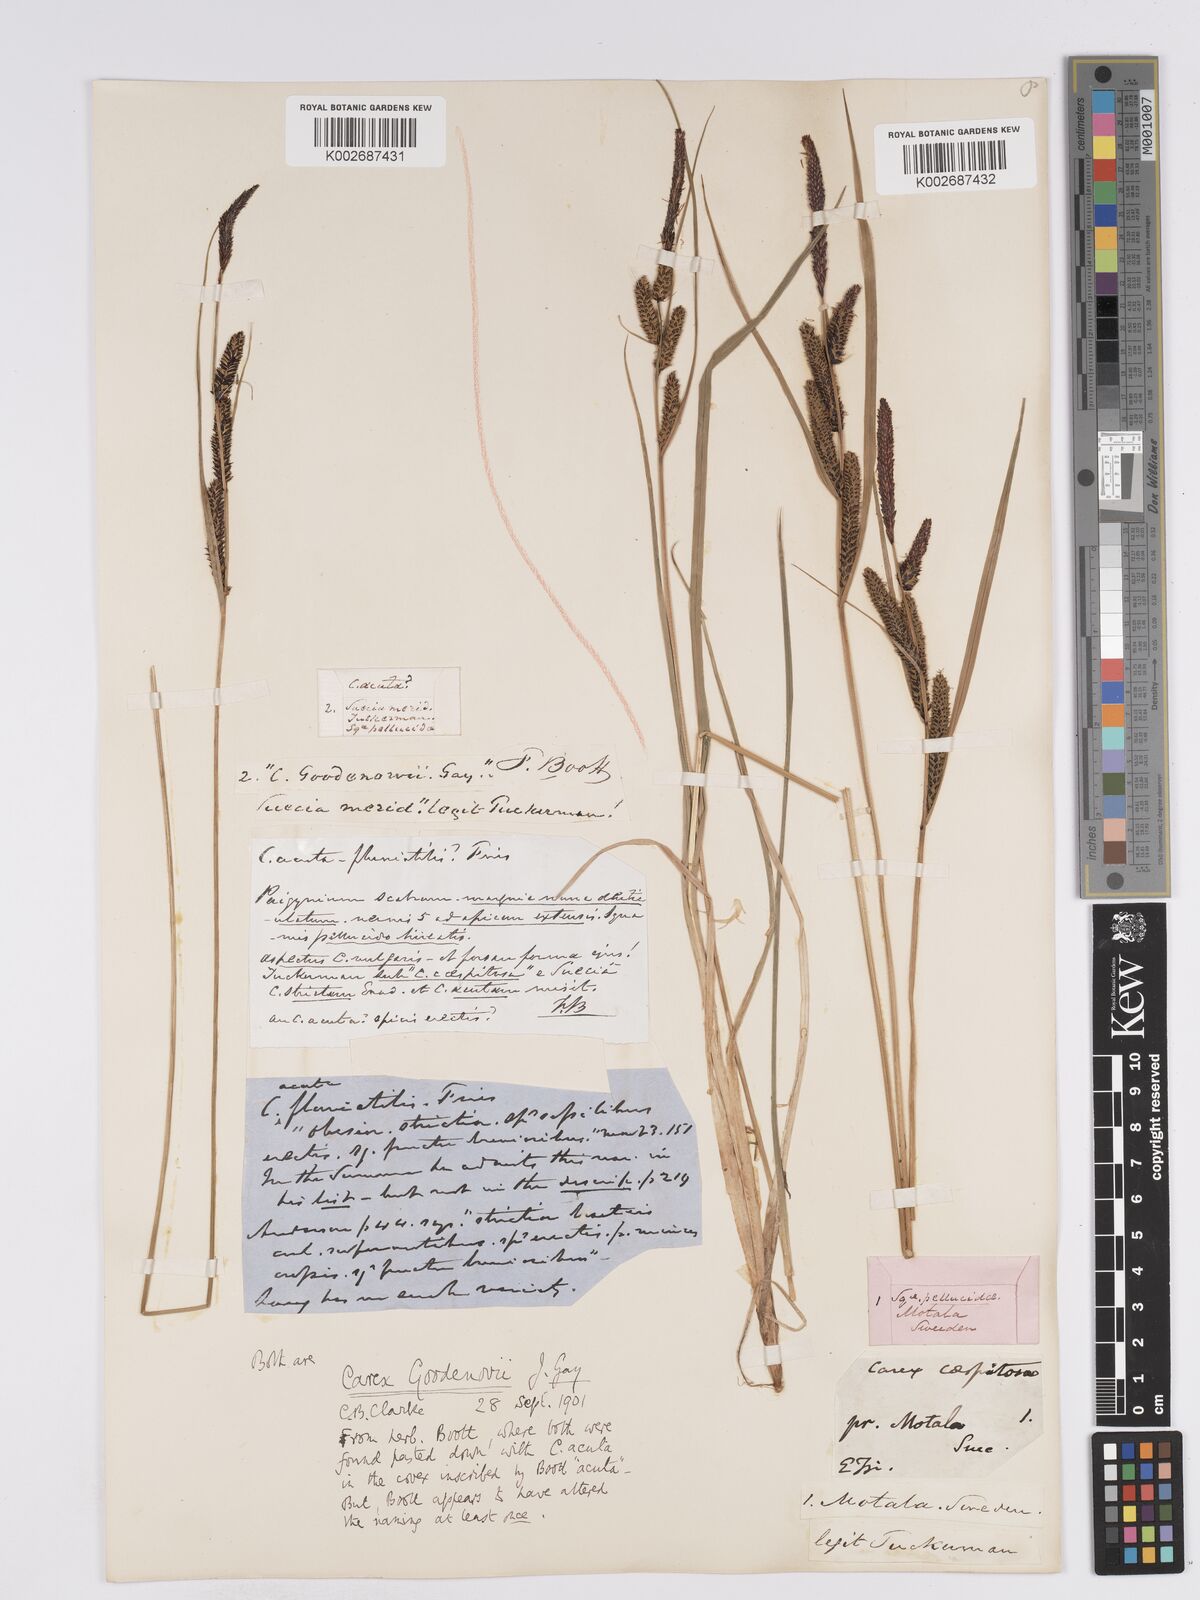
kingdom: Plantae
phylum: Tracheophyta
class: Liliopsida
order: Poales
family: Cyperaceae
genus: Carex
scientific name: Carex nigra
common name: Common sedge
